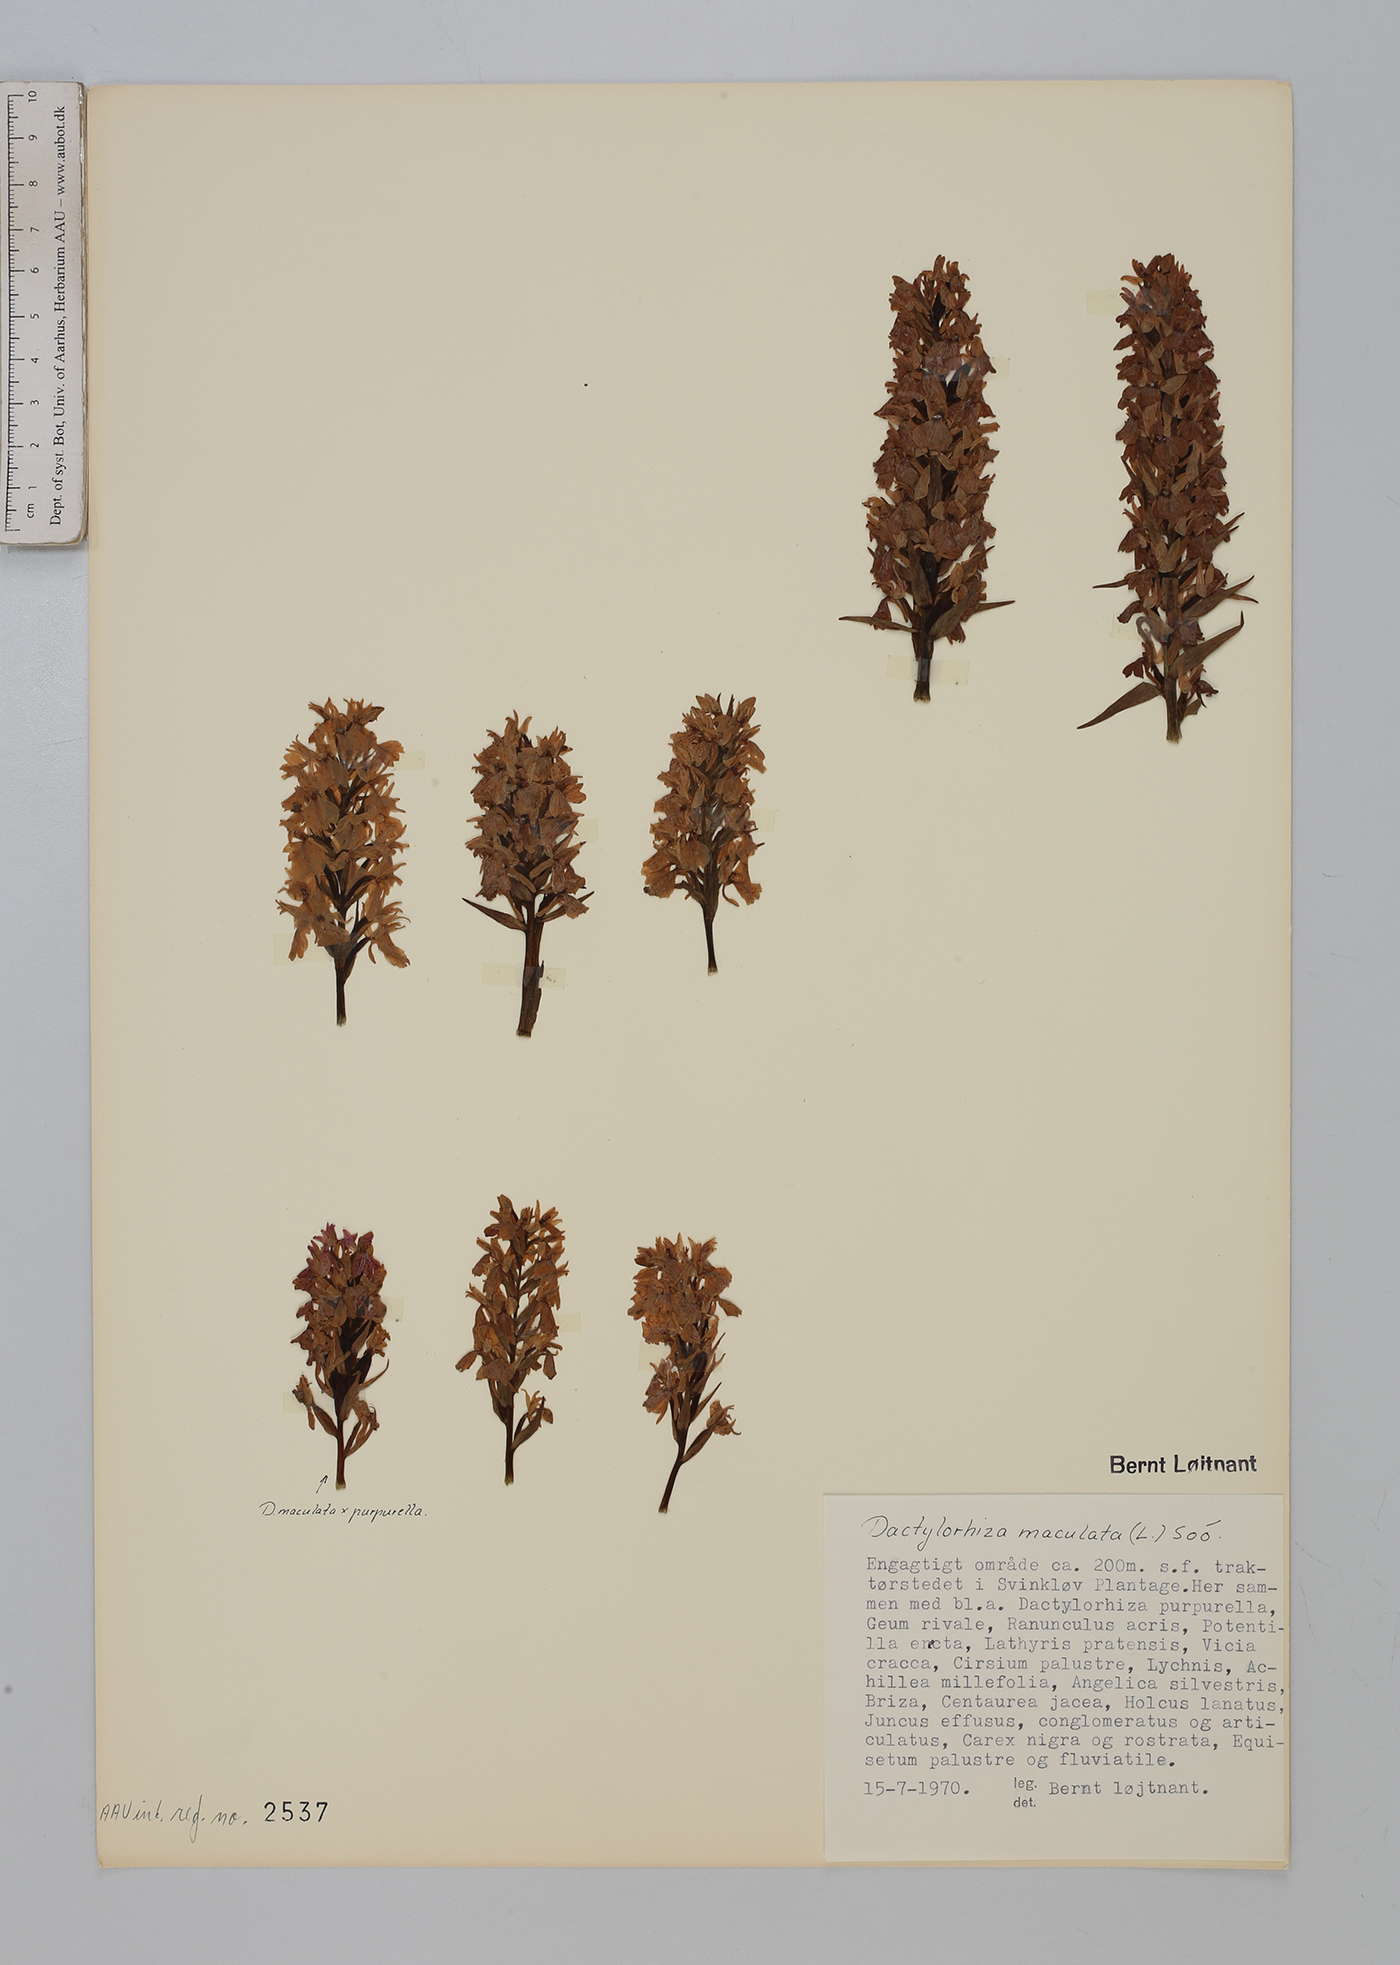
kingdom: Plantae
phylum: Tracheophyta
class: Liliopsida
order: Asparagales
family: Orchidaceae
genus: Dactylorhiza
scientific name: Dactylorhiza maculata
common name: Heath spotted-orchid
